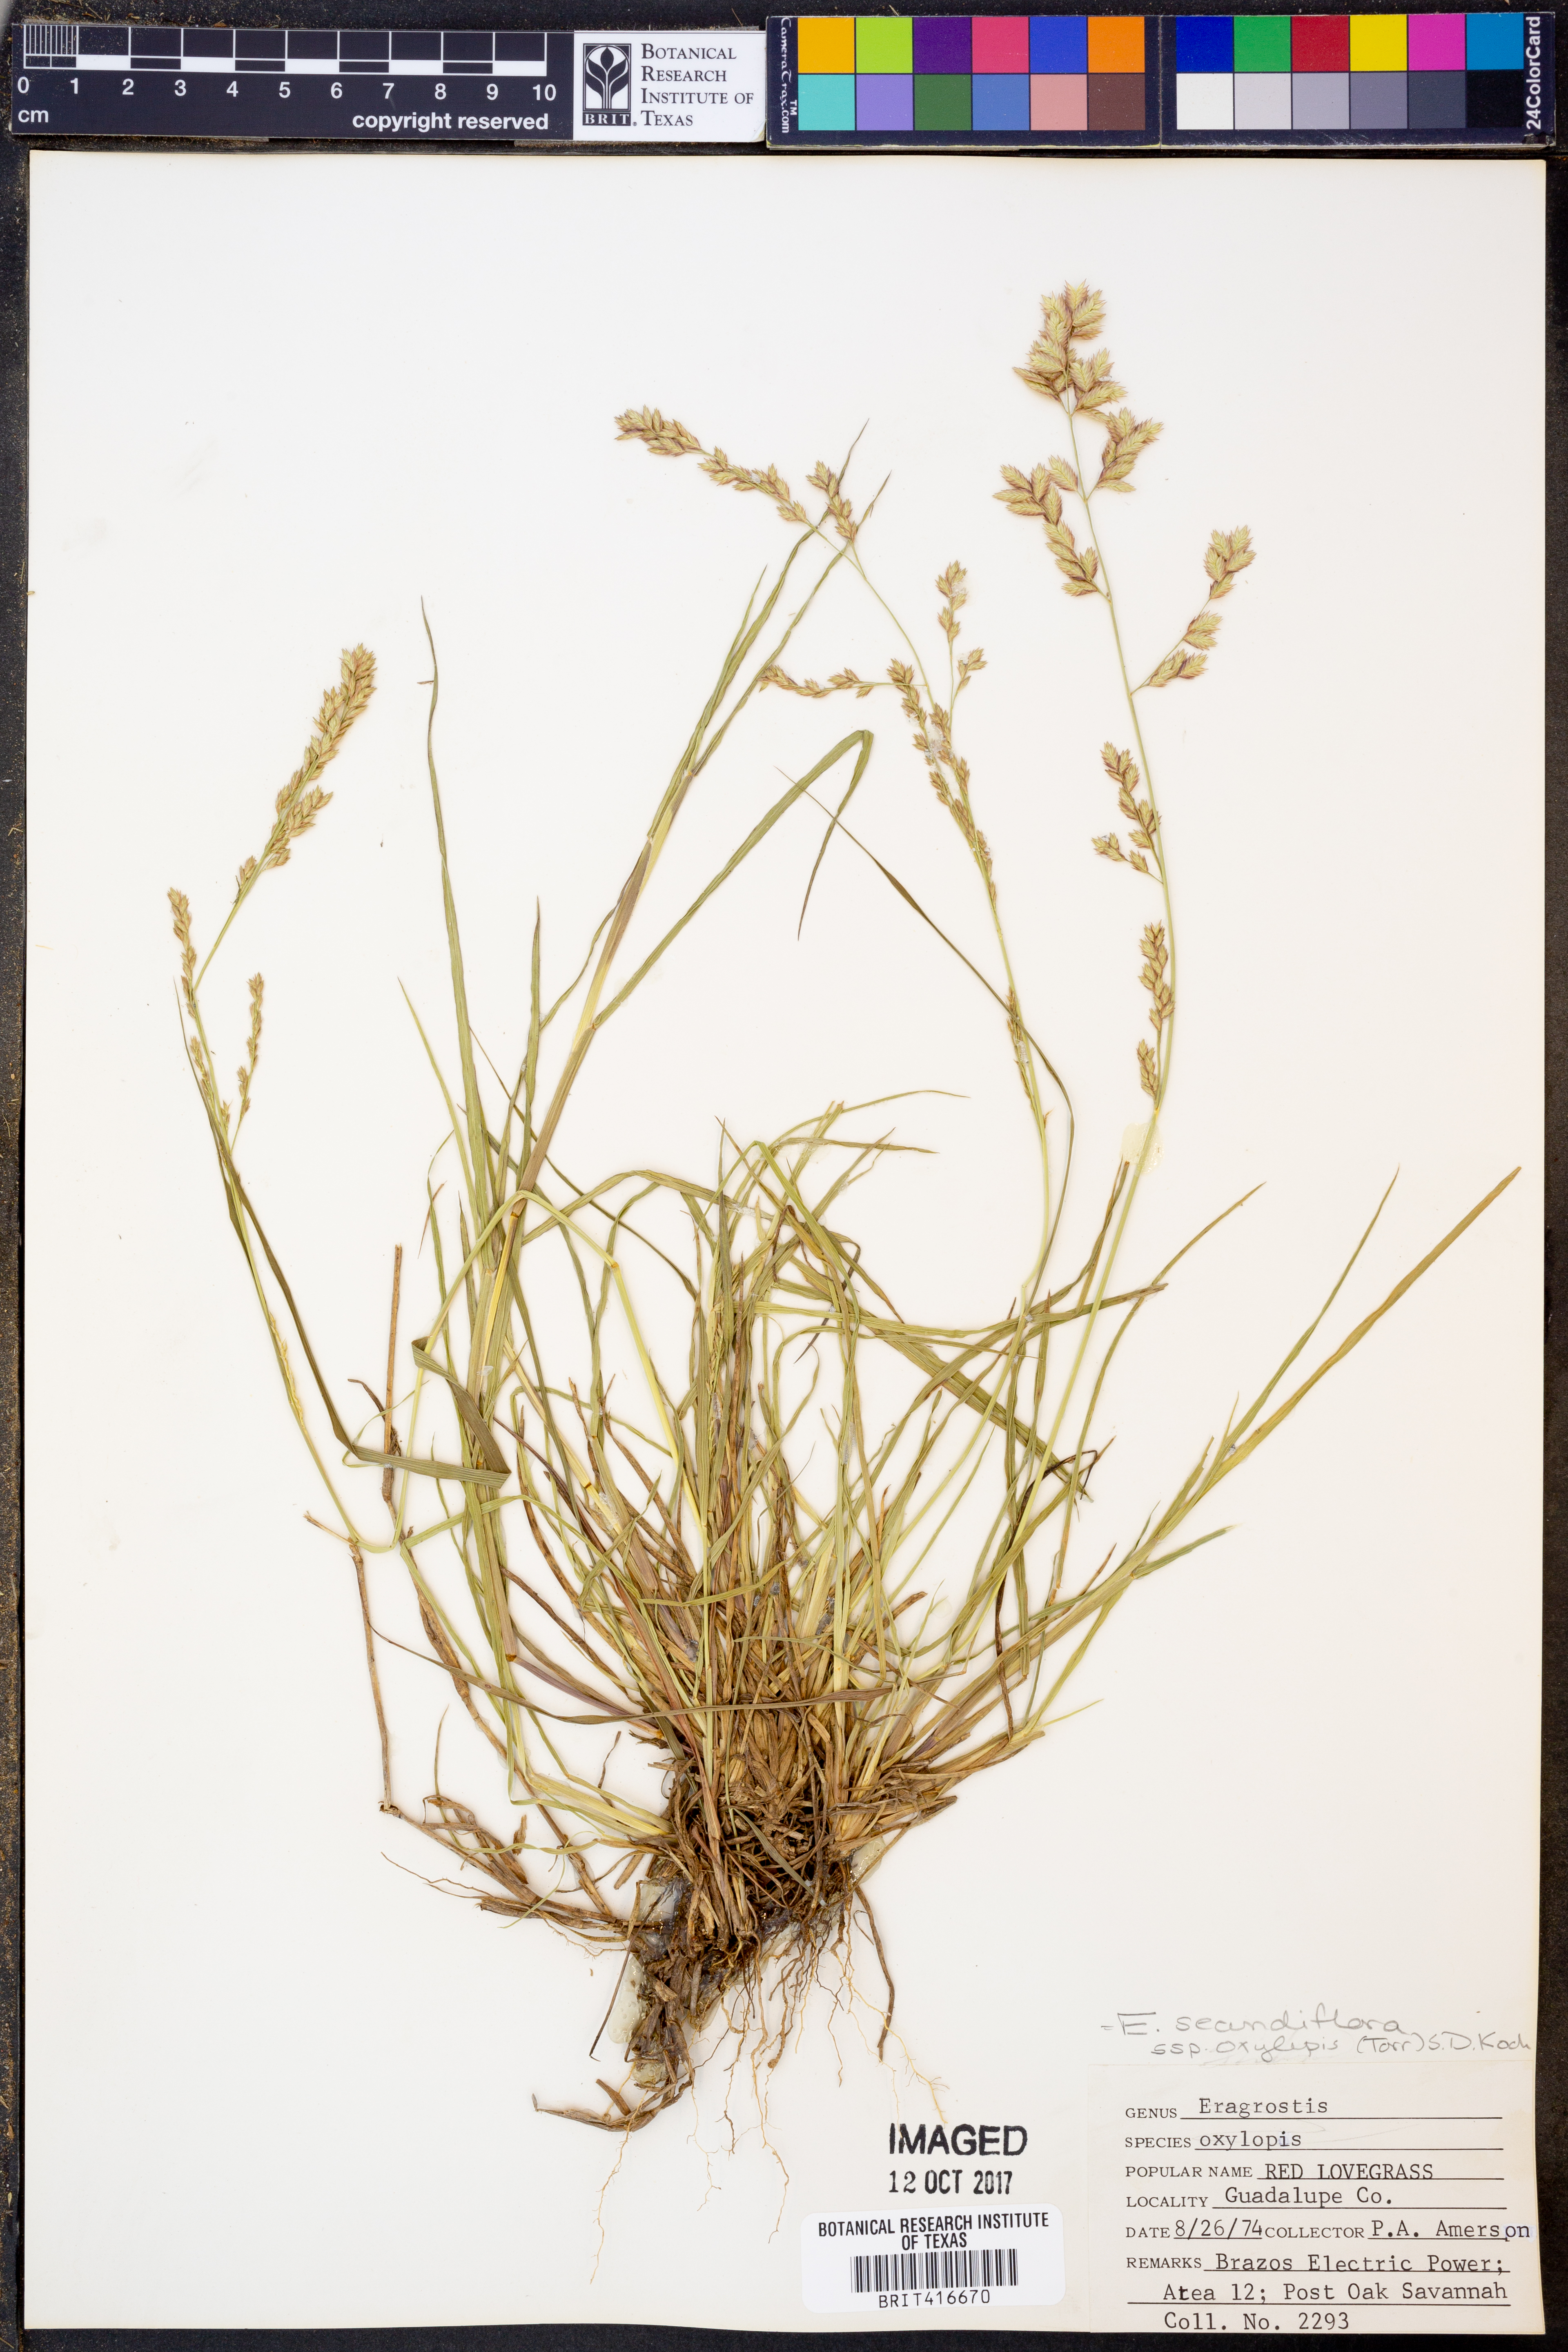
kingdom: Plantae
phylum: Tracheophyta
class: Liliopsida
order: Poales
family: Poaceae
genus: Eragrostis
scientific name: Eragrostis secundiflora
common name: Red love grass
